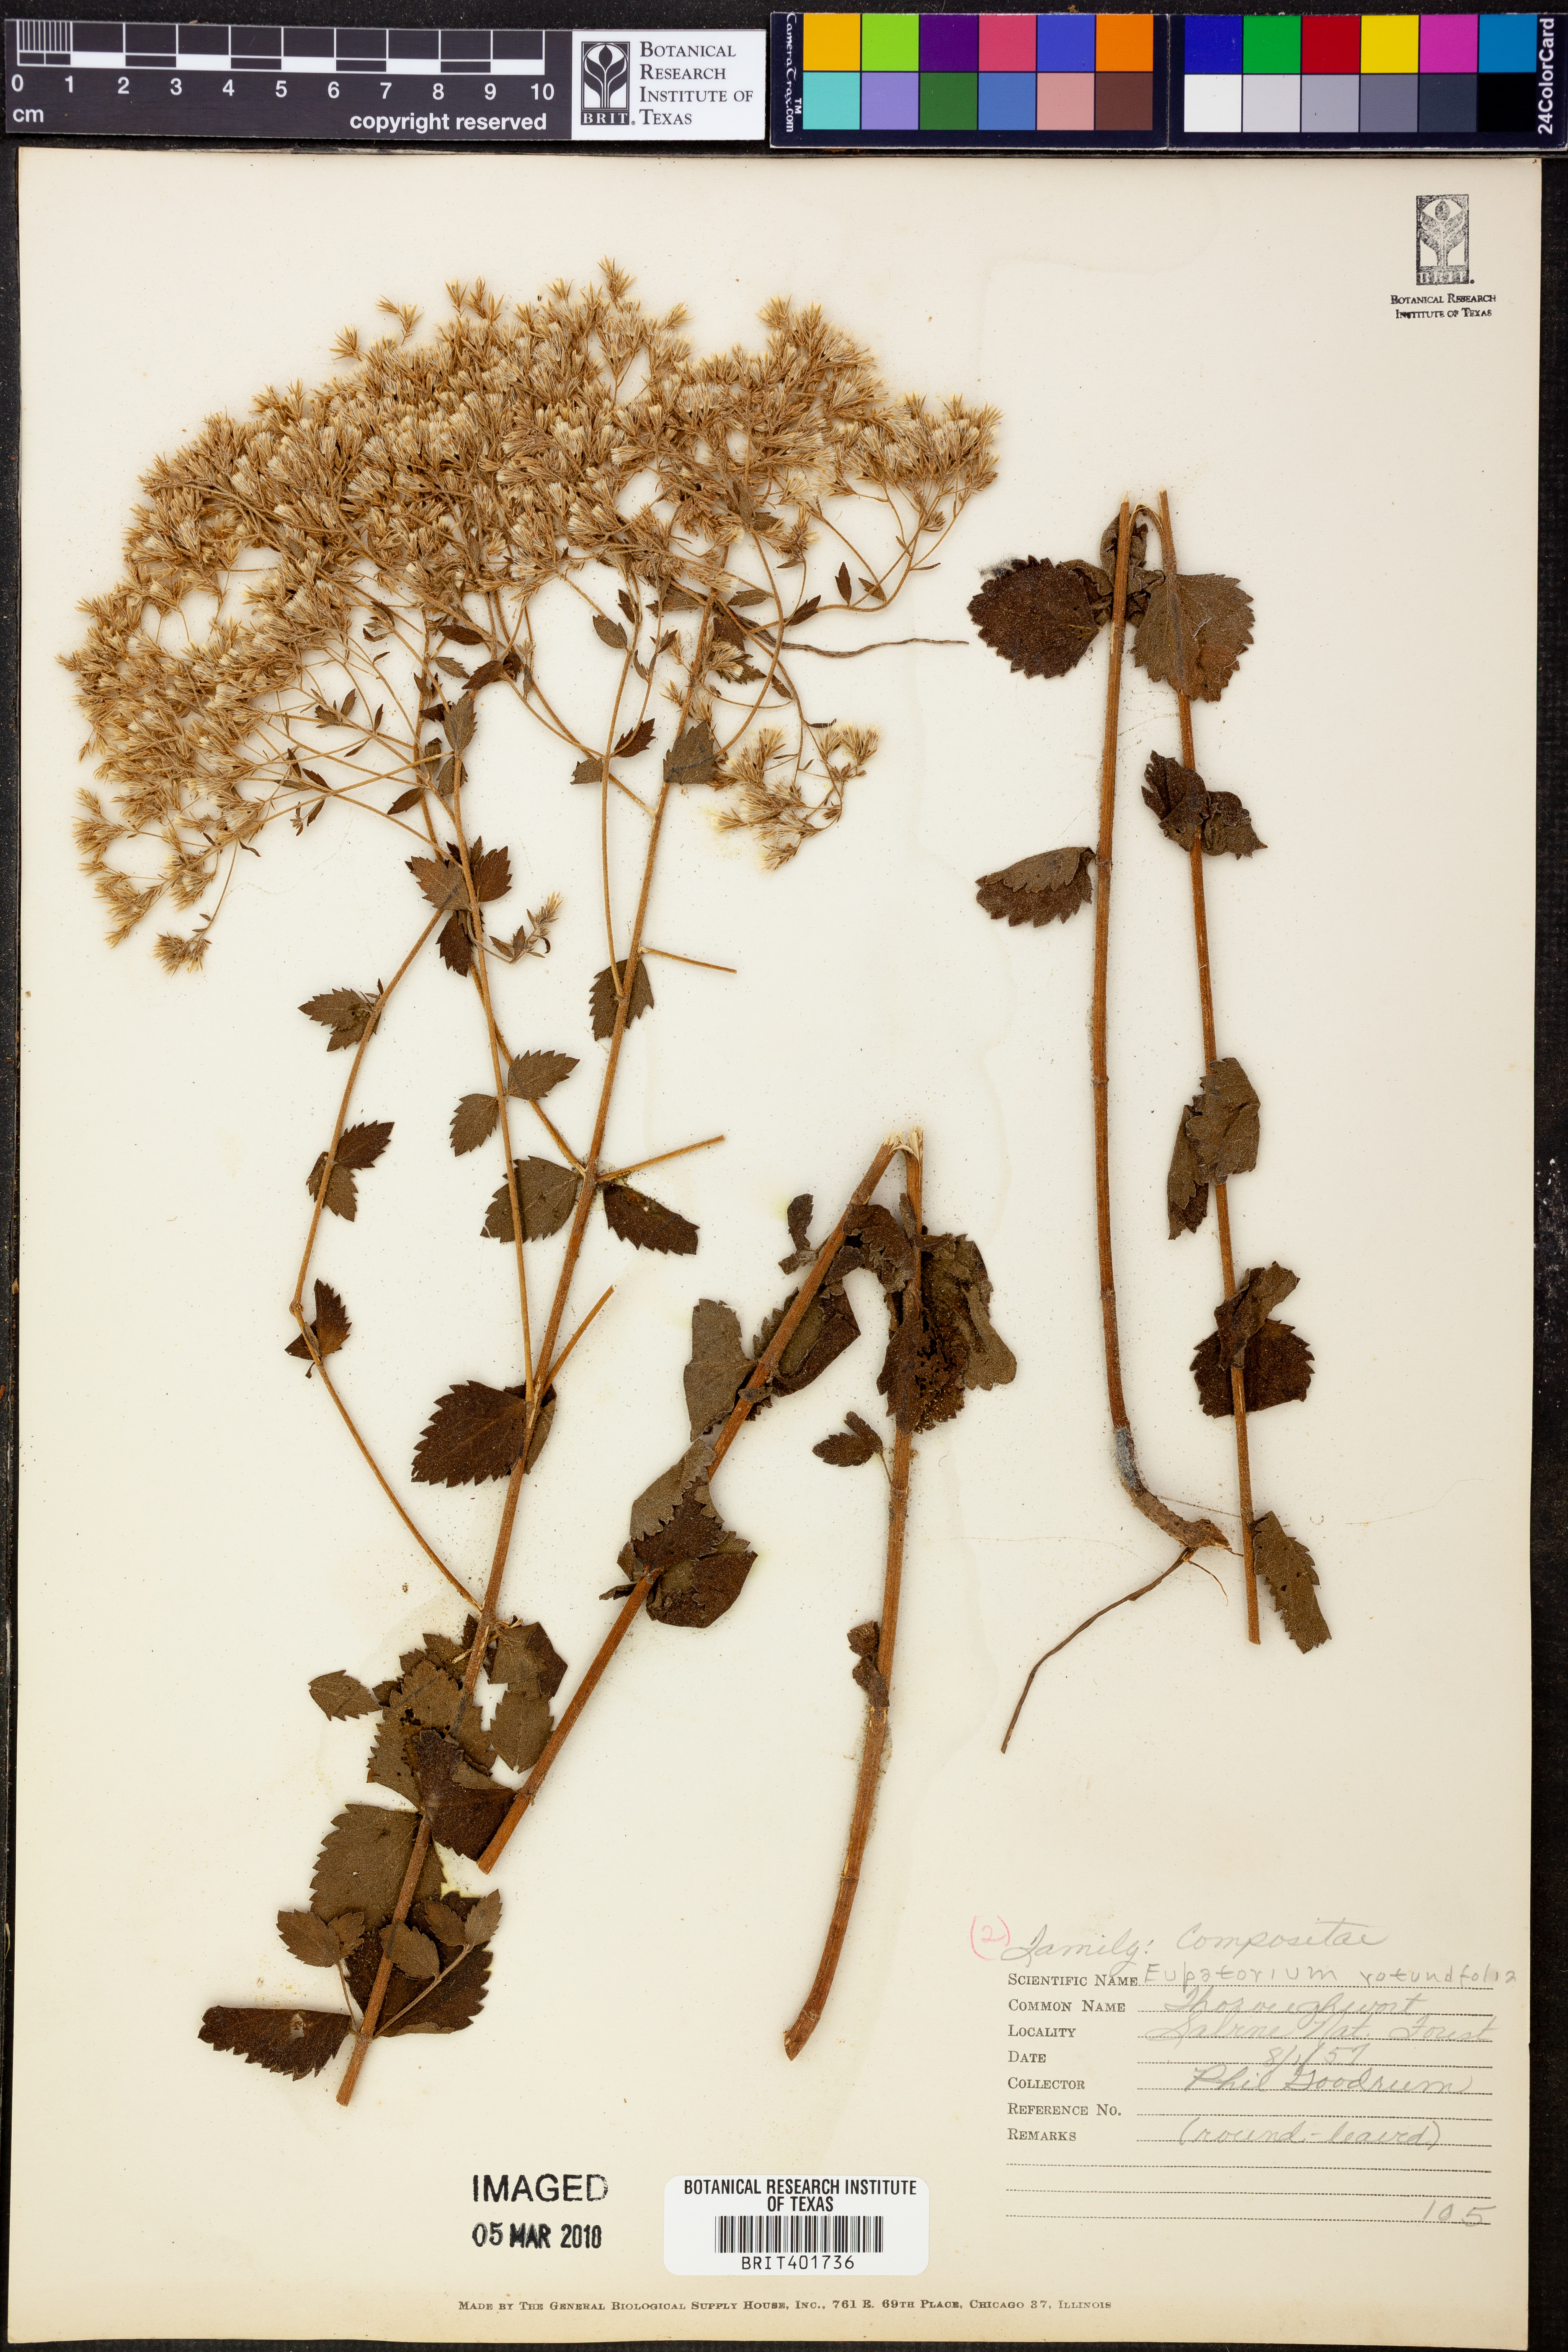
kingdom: Plantae
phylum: Tracheophyta
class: Magnoliopsida
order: Asterales
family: Asteraceae
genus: Eupatorium
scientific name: Eupatorium rotundifolium
